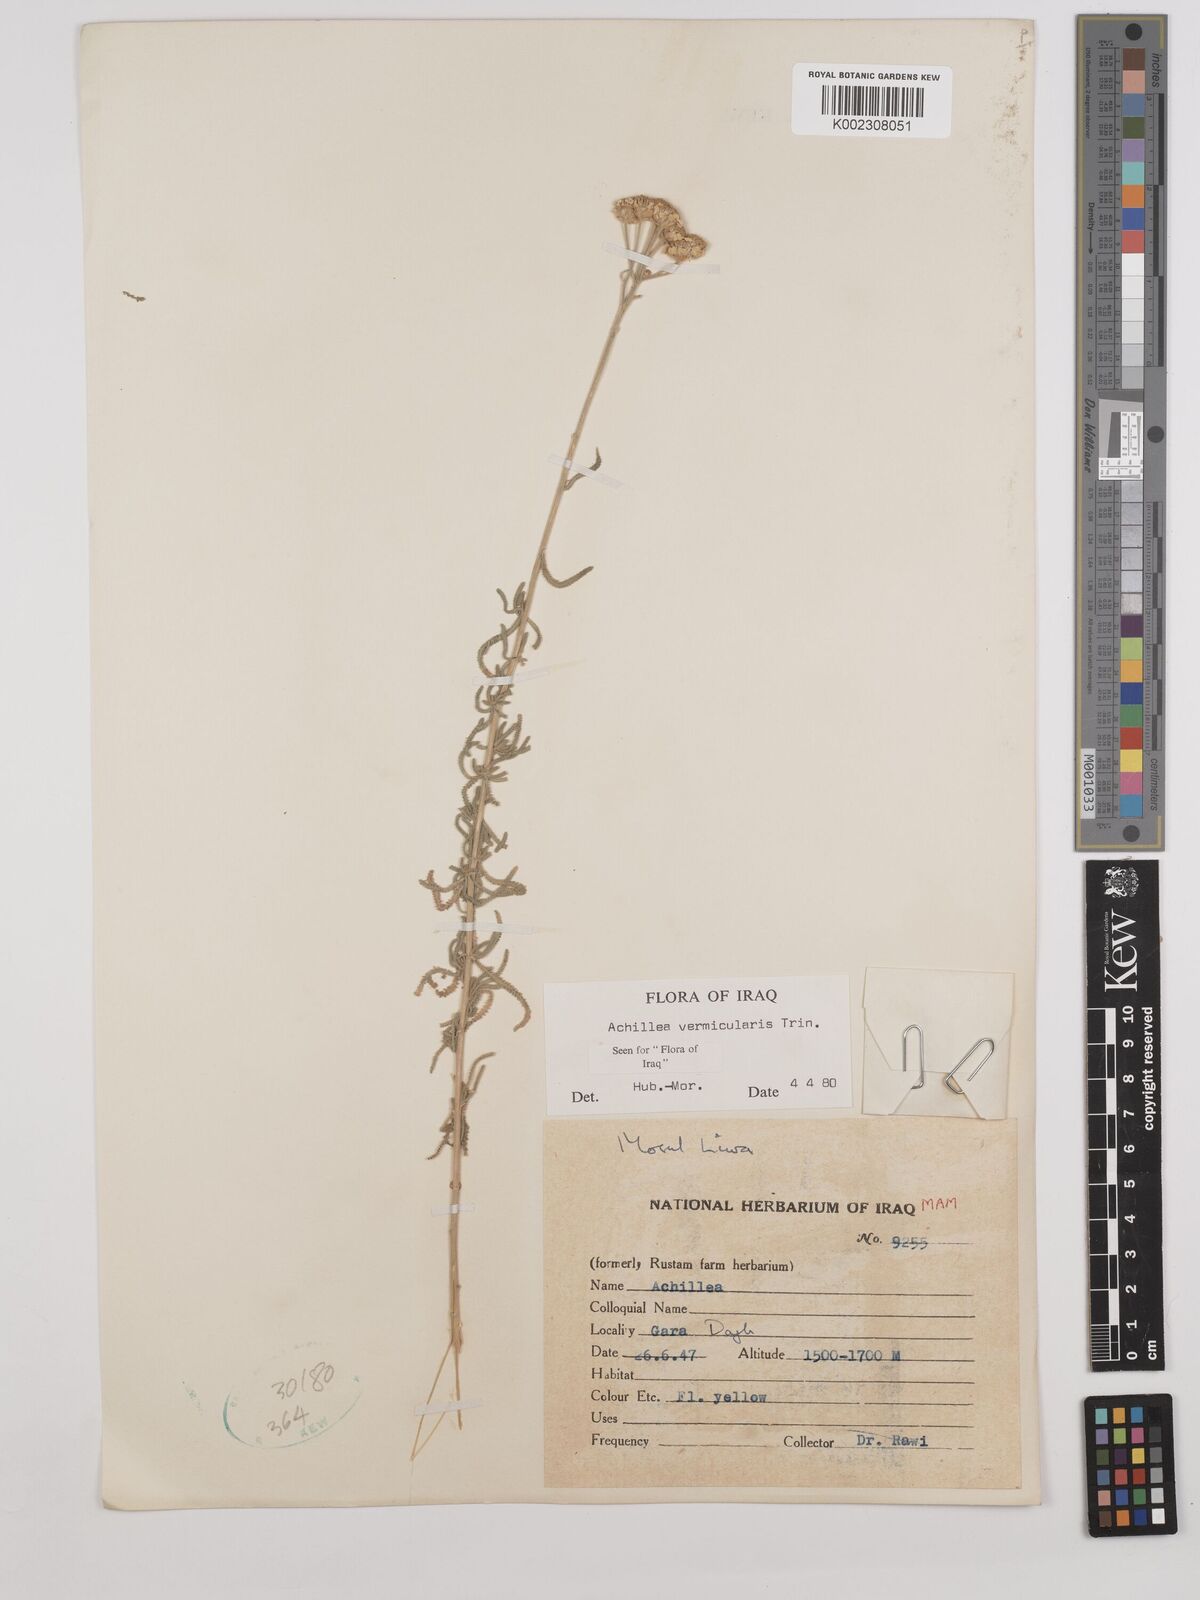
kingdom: Plantae
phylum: Tracheophyta
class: Magnoliopsida
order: Asterales
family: Asteraceae
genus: Achillea
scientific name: Achillea vermicularis
